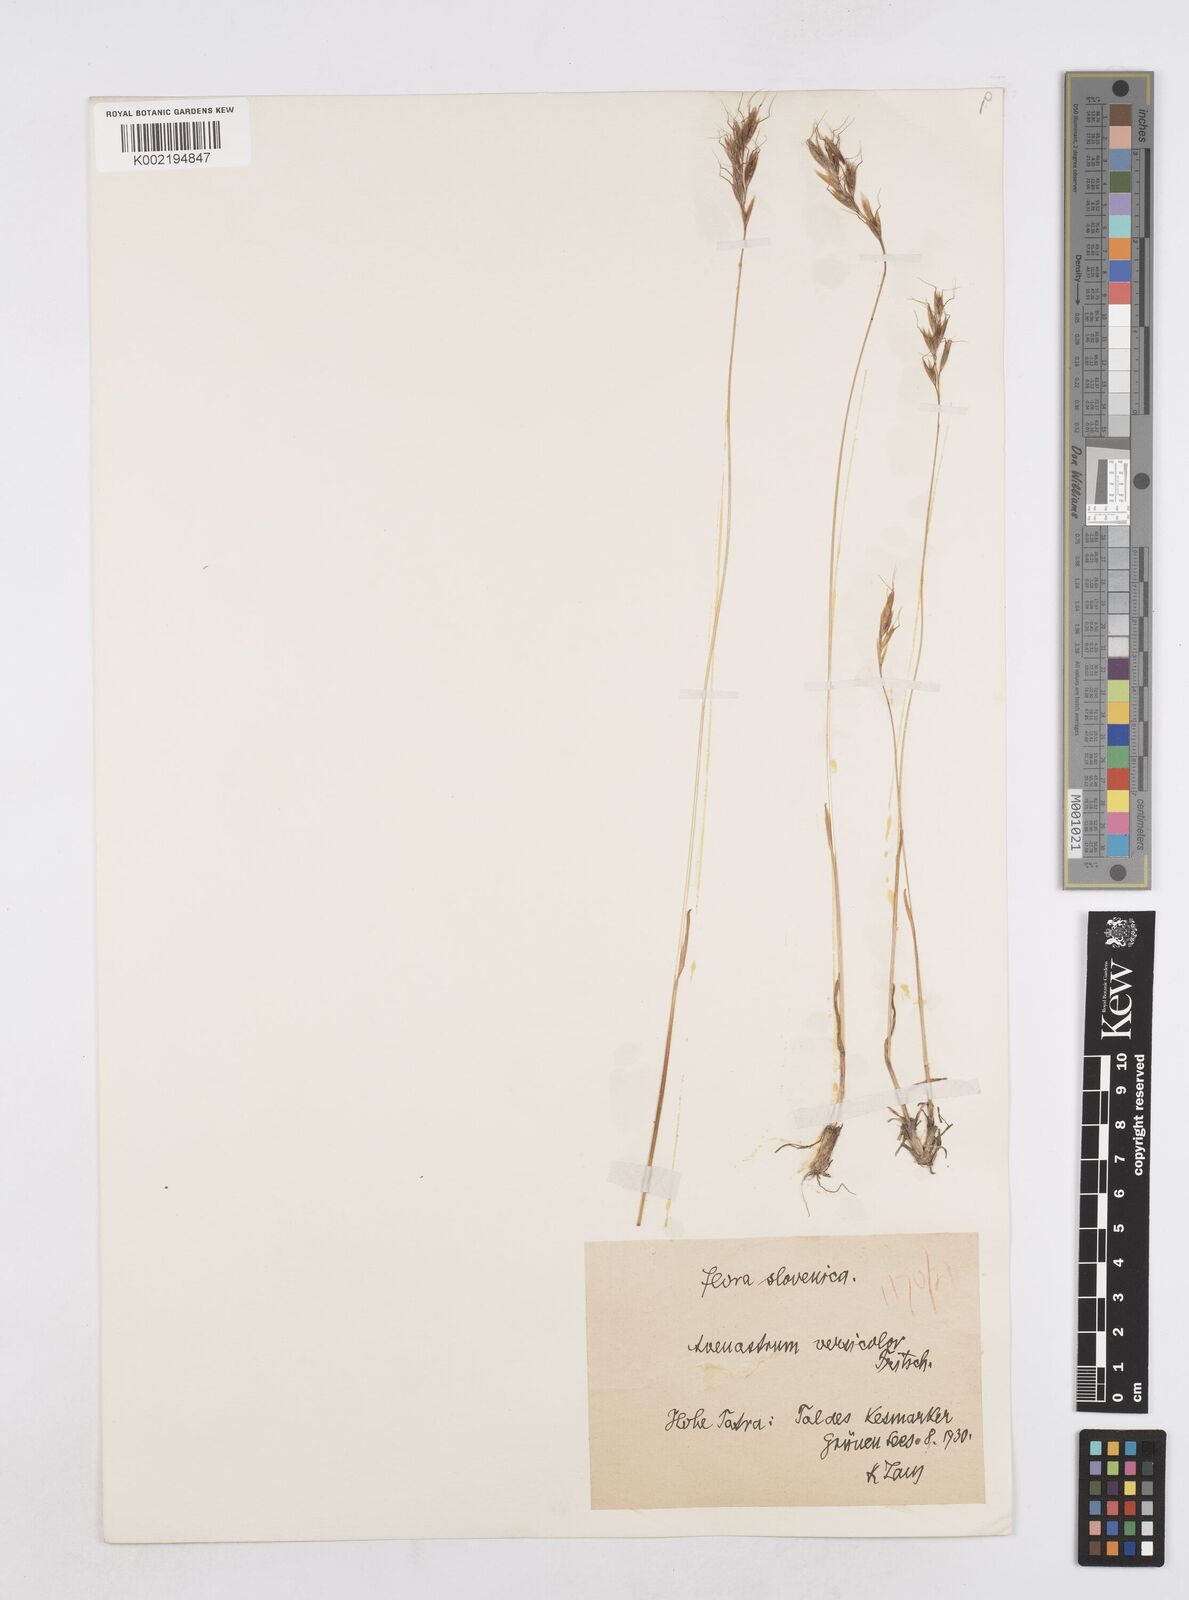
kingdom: Plantae
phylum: Tracheophyta
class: Liliopsida
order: Poales
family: Poaceae
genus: Helictochloa
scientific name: Helictochloa versicolor
